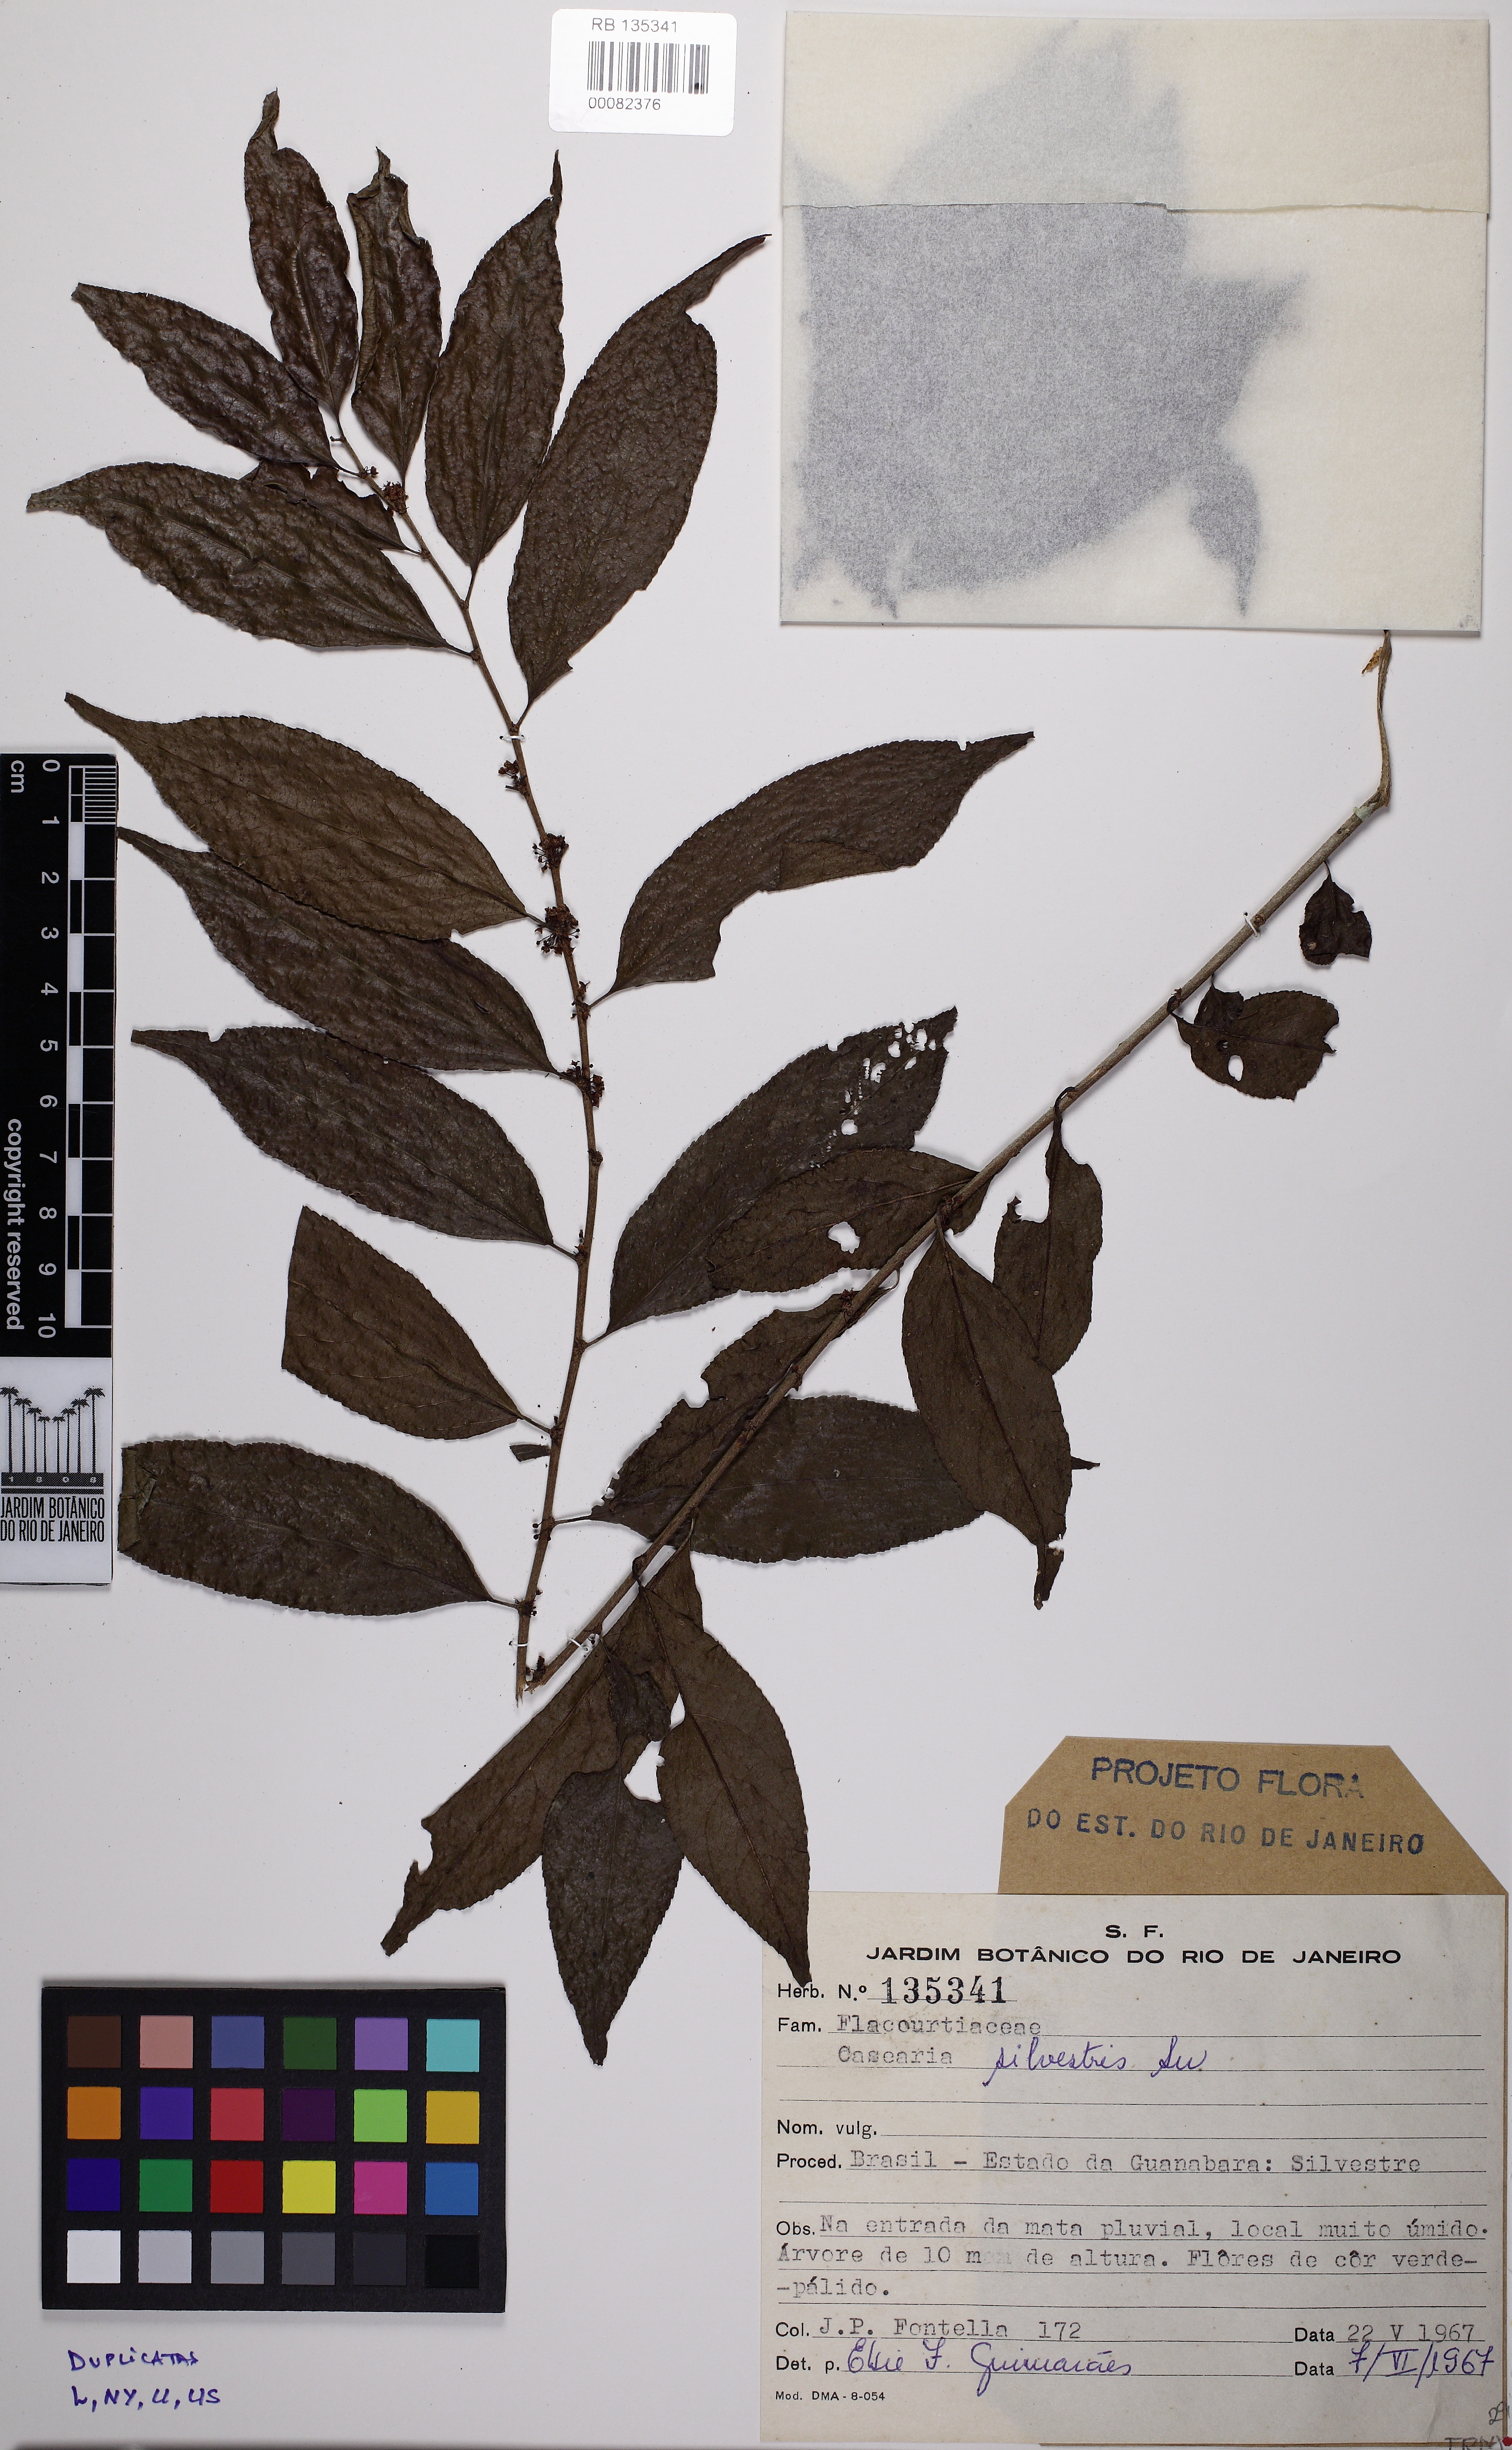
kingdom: Plantae
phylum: Tracheophyta
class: Magnoliopsida
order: Malpighiales
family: Salicaceae
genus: Casearia
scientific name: Casearia sylvestris
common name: Wild sage
